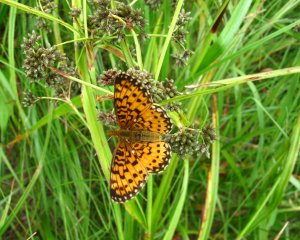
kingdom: Animalia
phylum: Arthropoda
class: Insecta
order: Lepidoptera
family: Nymphalidae
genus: Boloria
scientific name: Boloria selene
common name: Silver-bordered Fritillary
